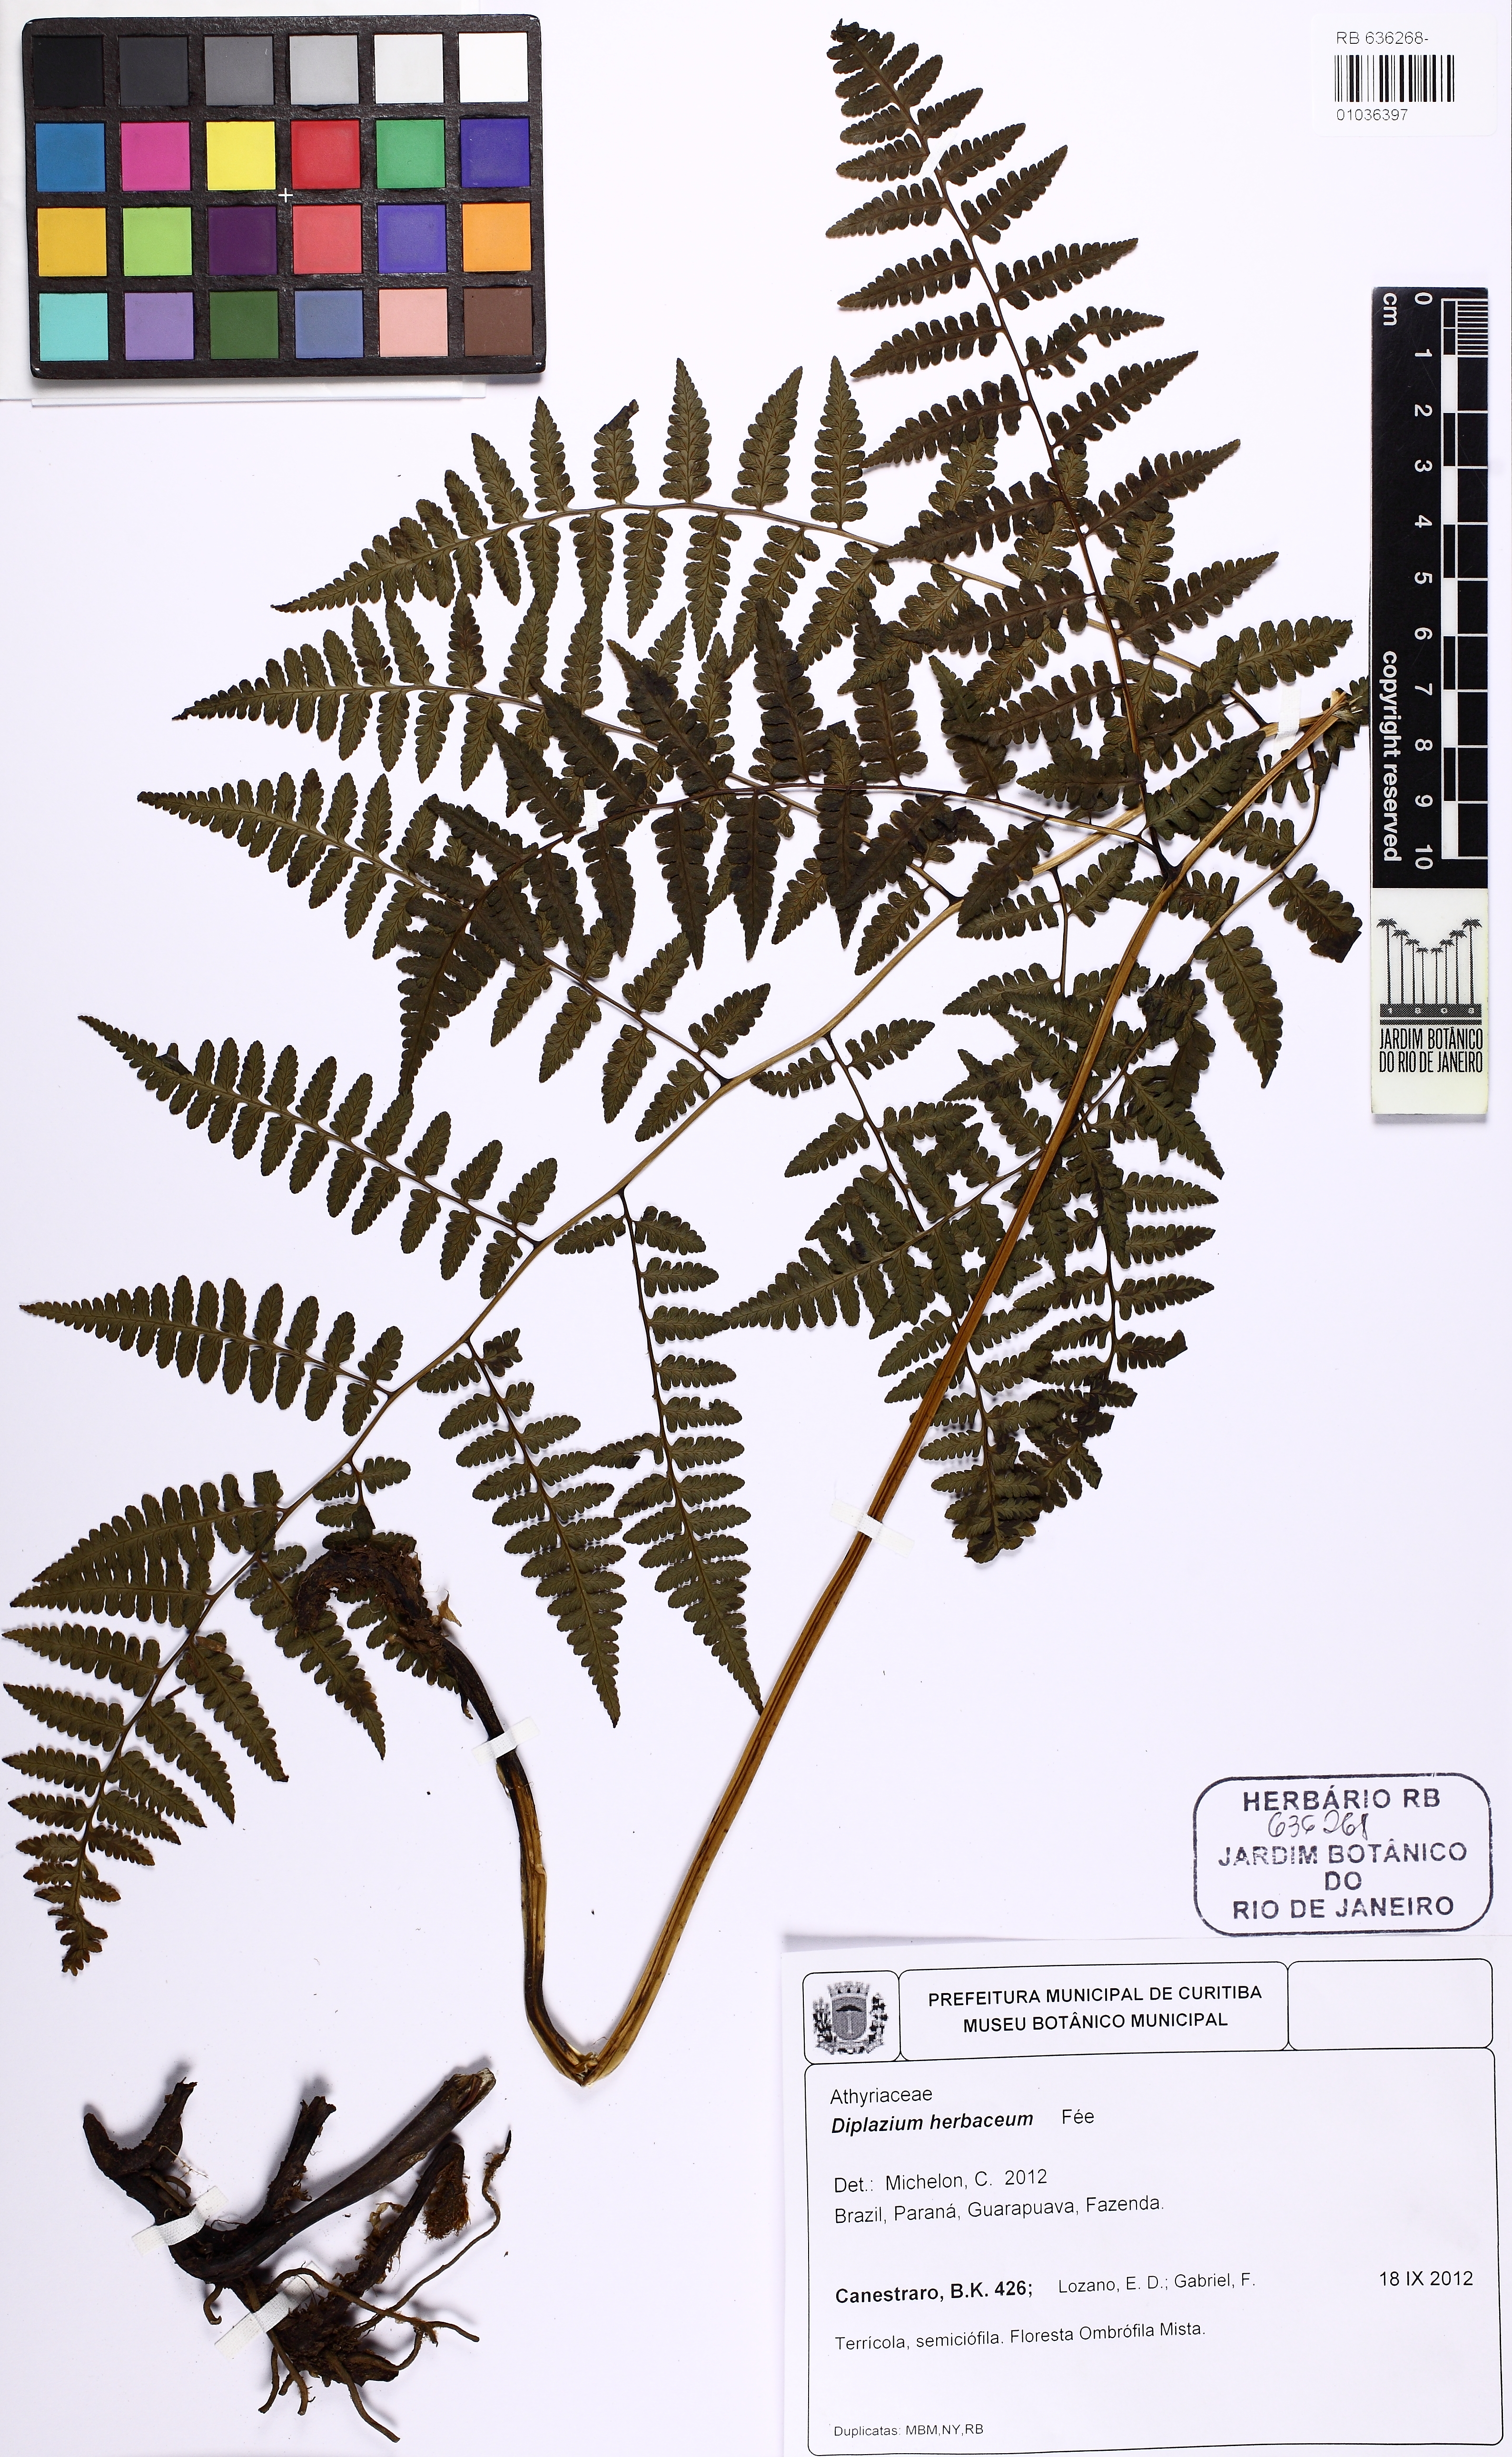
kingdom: Plantae
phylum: Tracheophyta
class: Polypodiopsida
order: Polypodiales
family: Athyriaceae
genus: Diplazium
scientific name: Diplazium herbaceum
